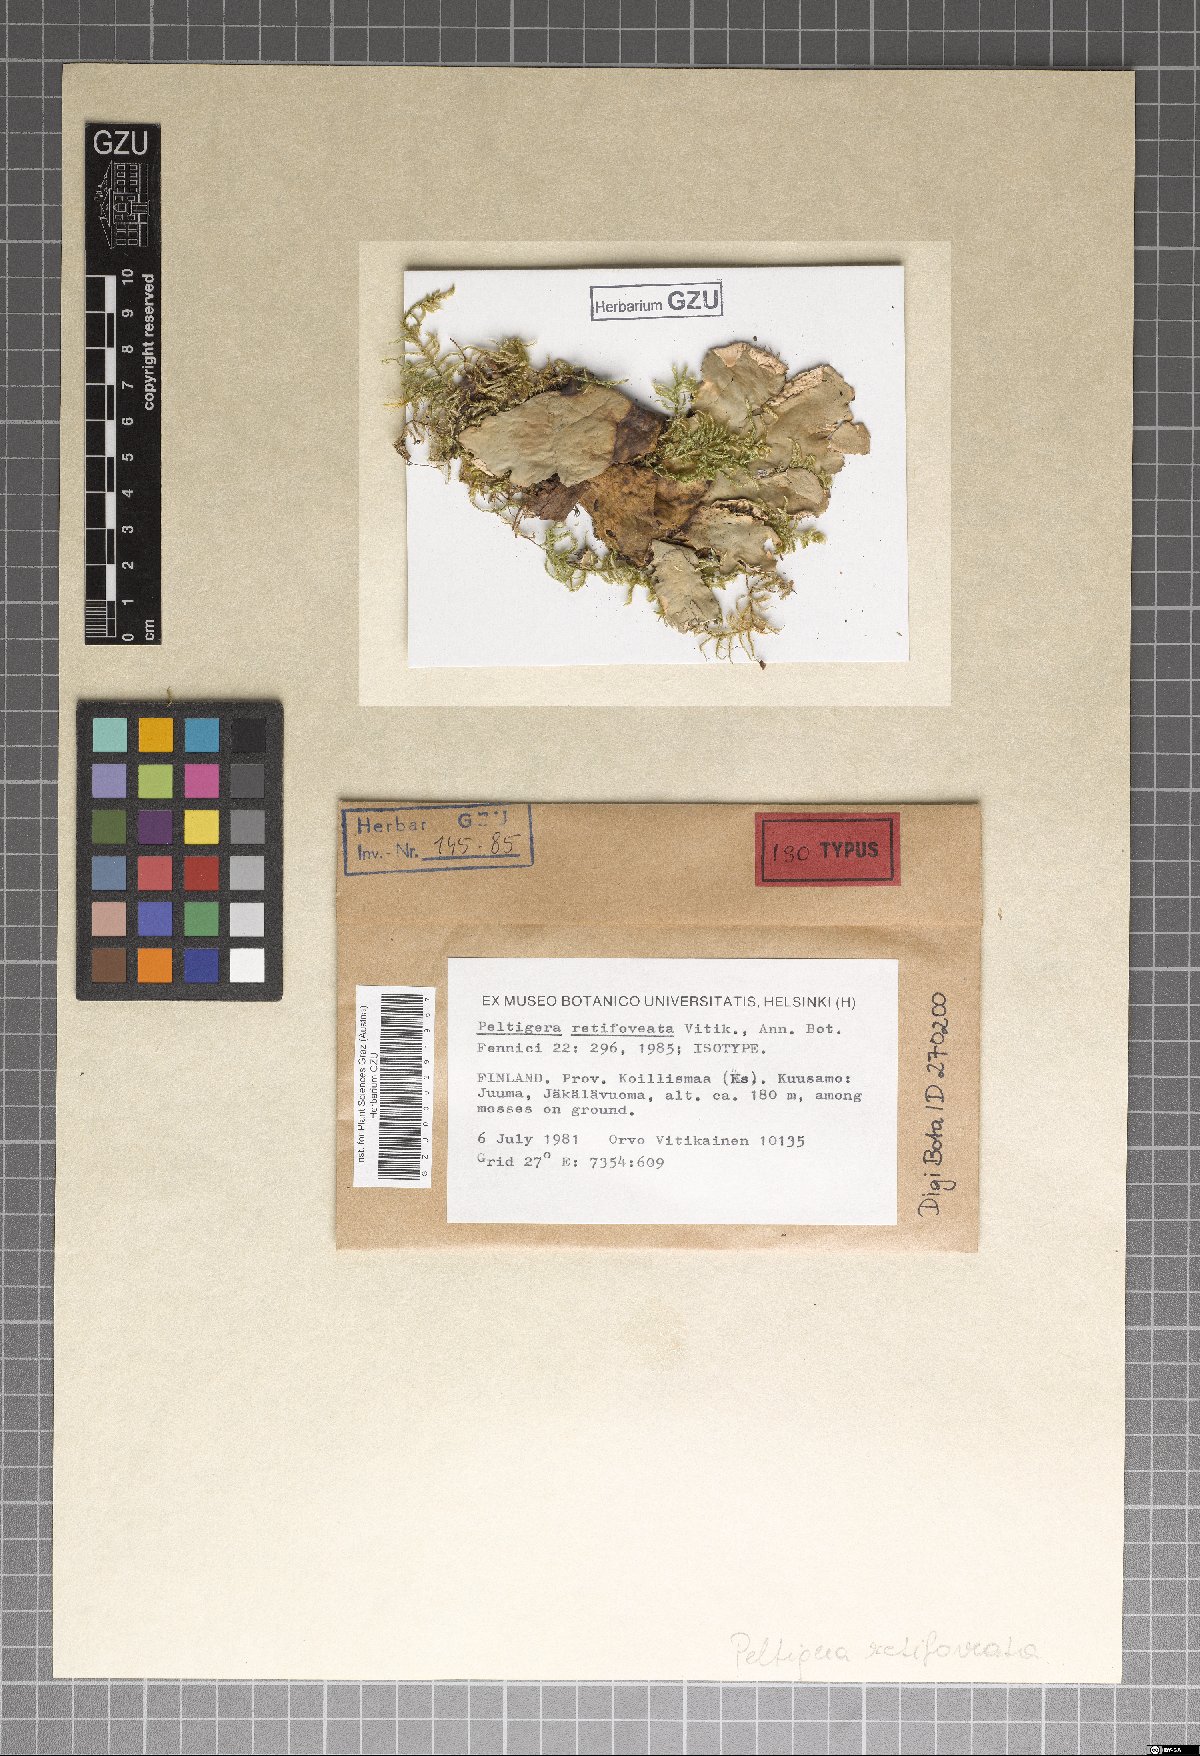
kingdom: Fungi
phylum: Ascomycota
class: Lecanoromycetes
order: Peltigerales
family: Peltigeraceae
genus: Peltigera
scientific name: Peltigera retifoveata
